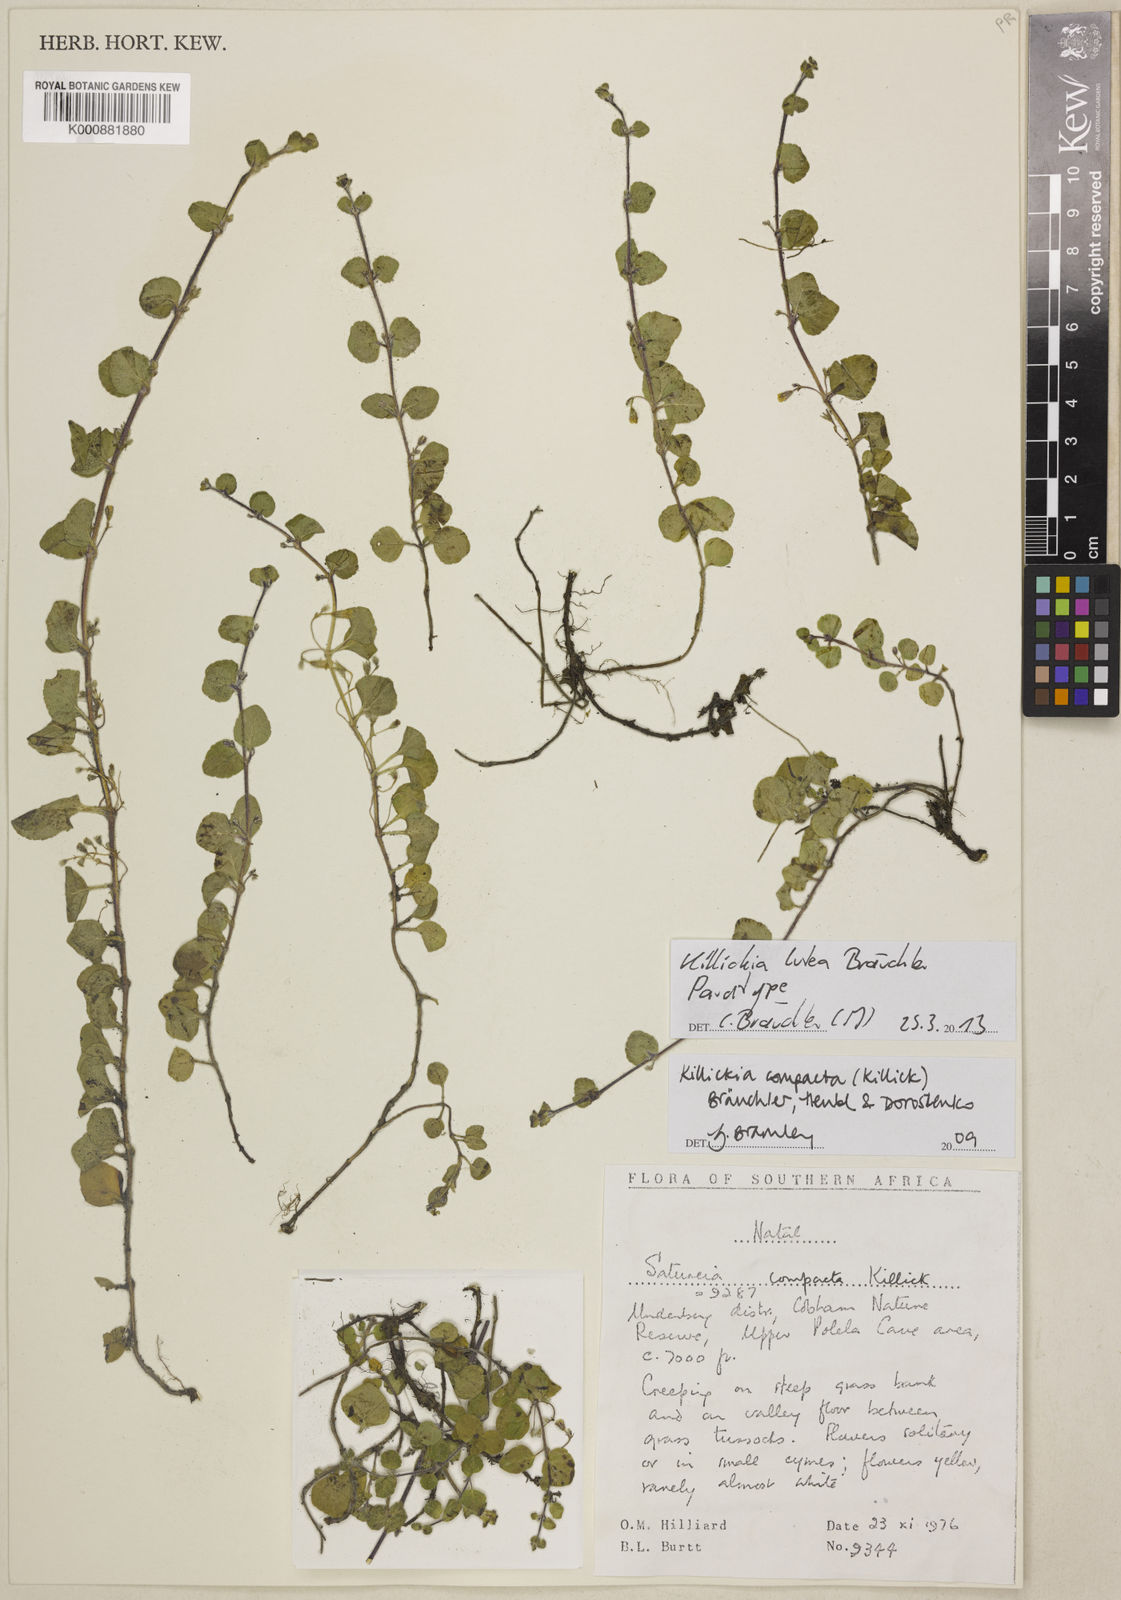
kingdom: Plantae
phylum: Tracheophyta
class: Magnoliopsida
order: Lamiales
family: Lamiaceae
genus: Killickia
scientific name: Killickia
